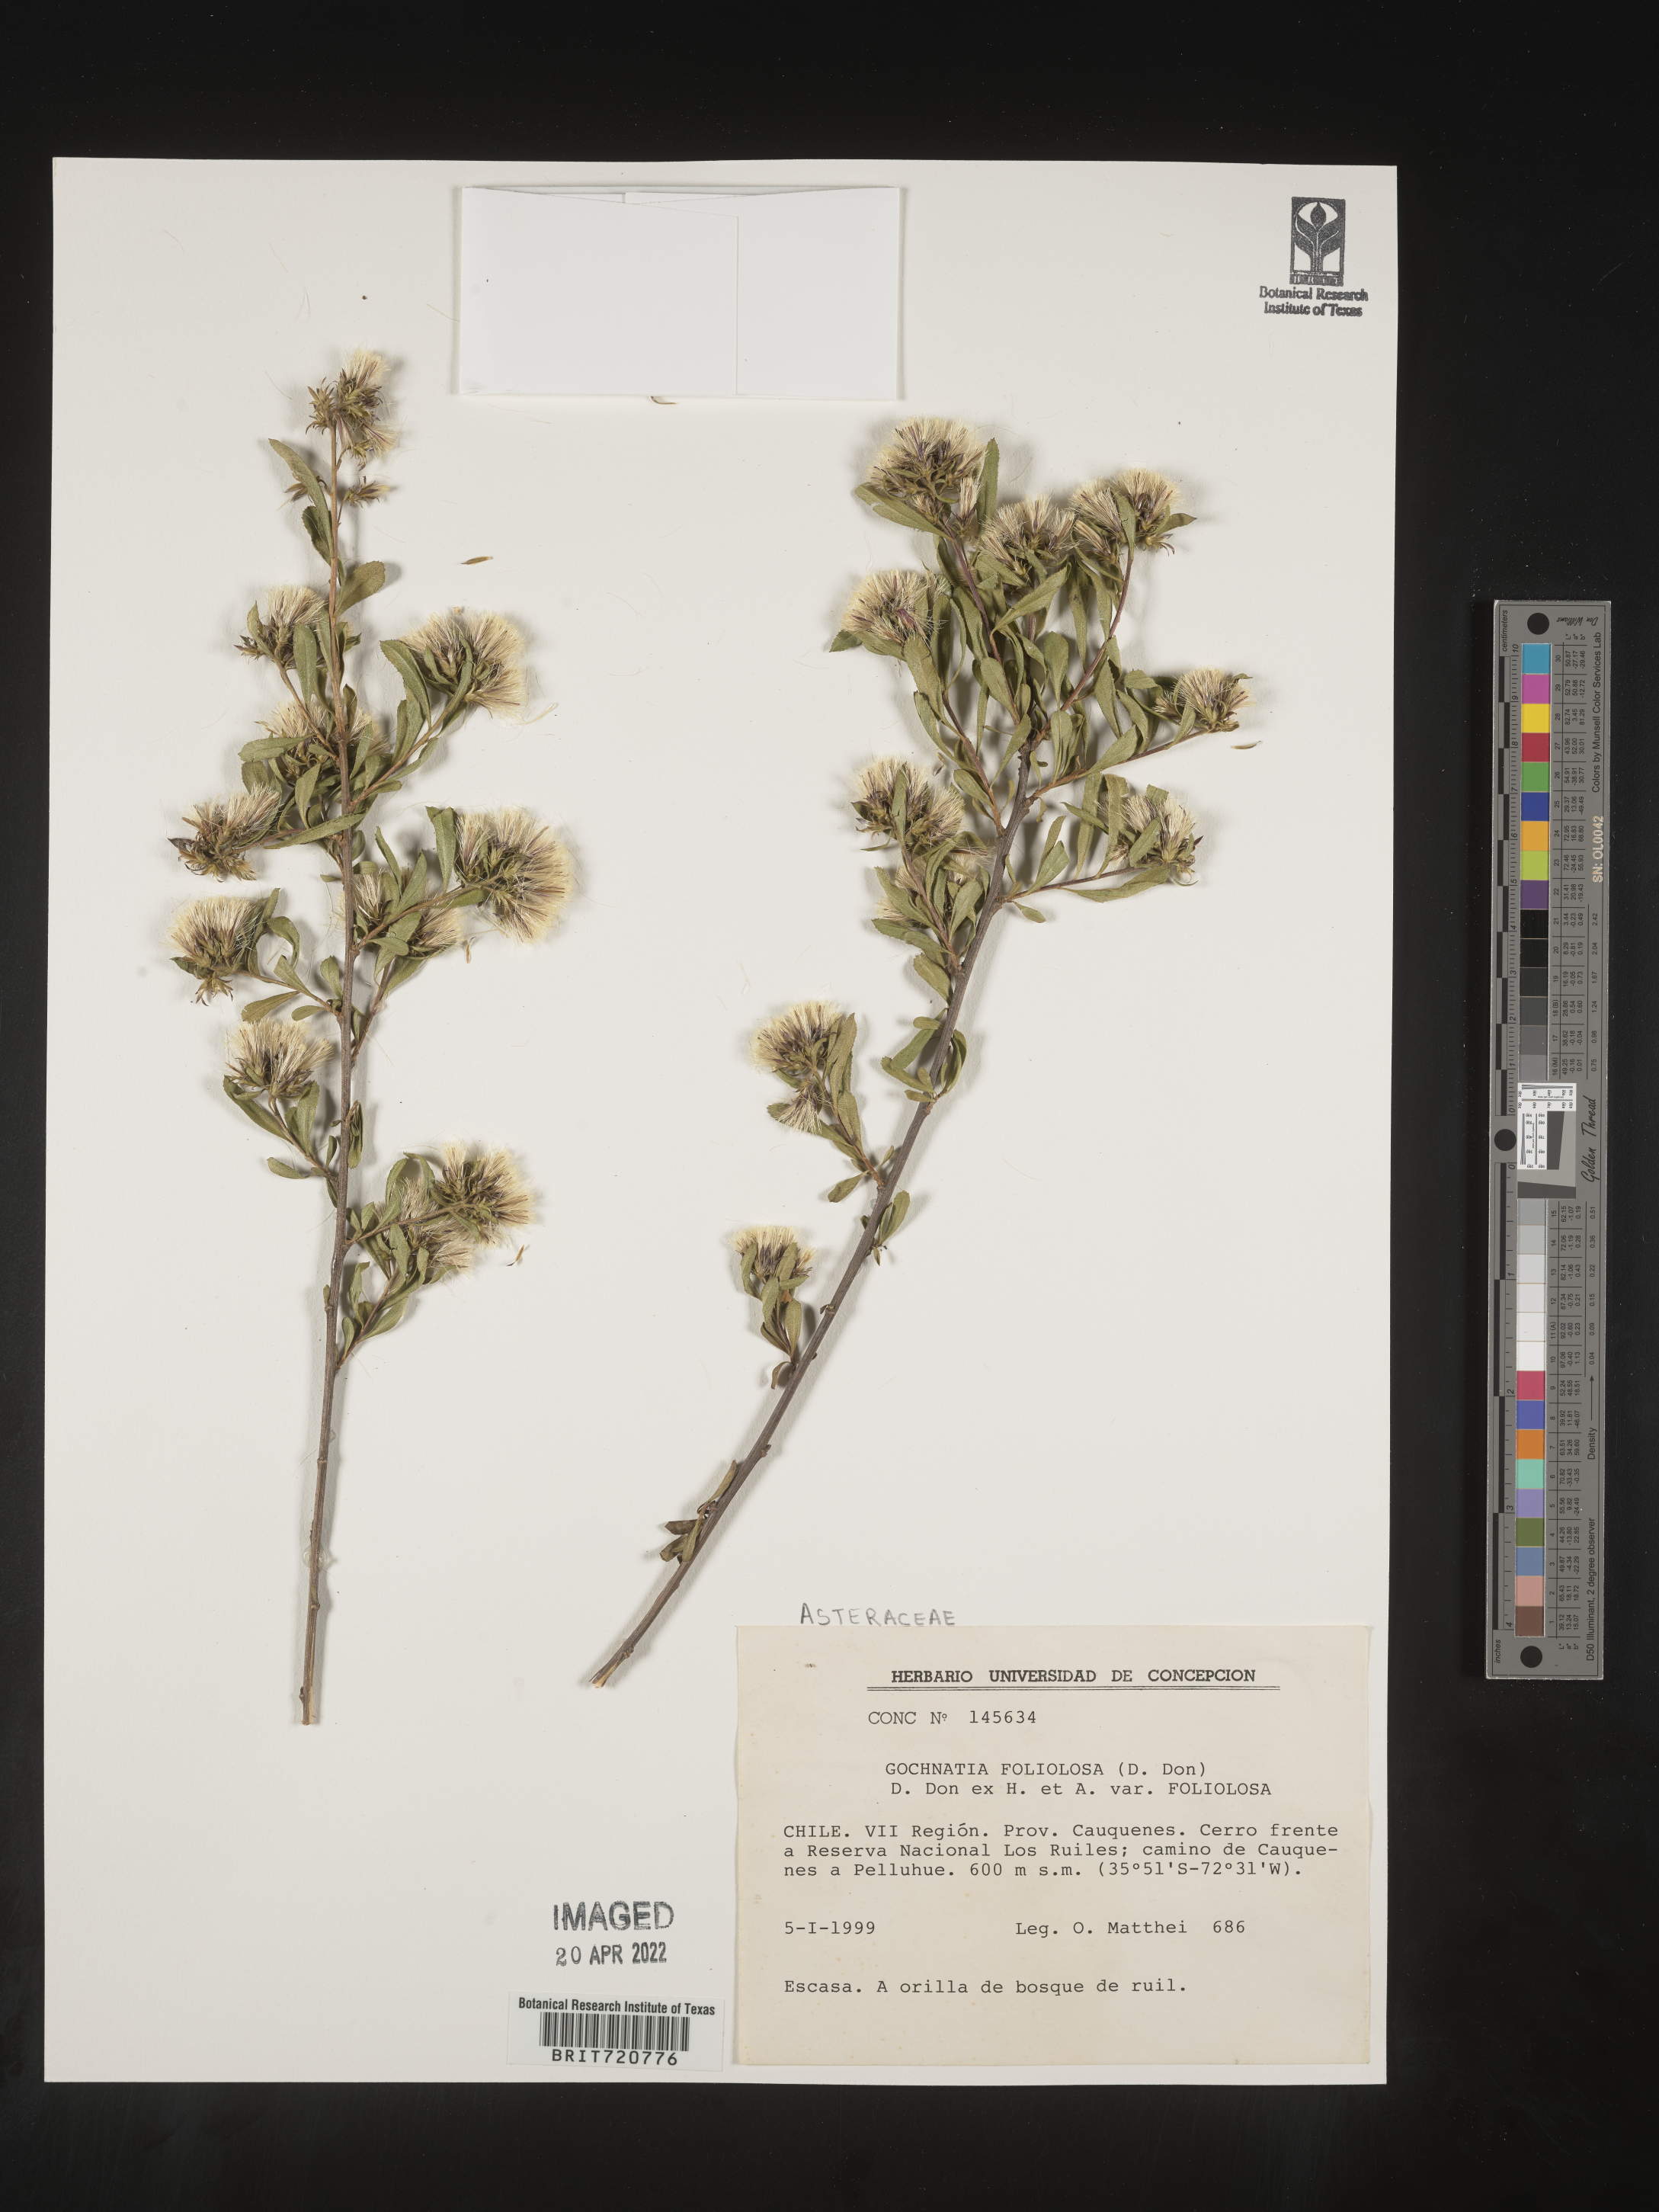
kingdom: Plantae
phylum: Tracheophyta
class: Magnoliopsida
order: Asterales
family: Asteraceae
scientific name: Asteraceae
